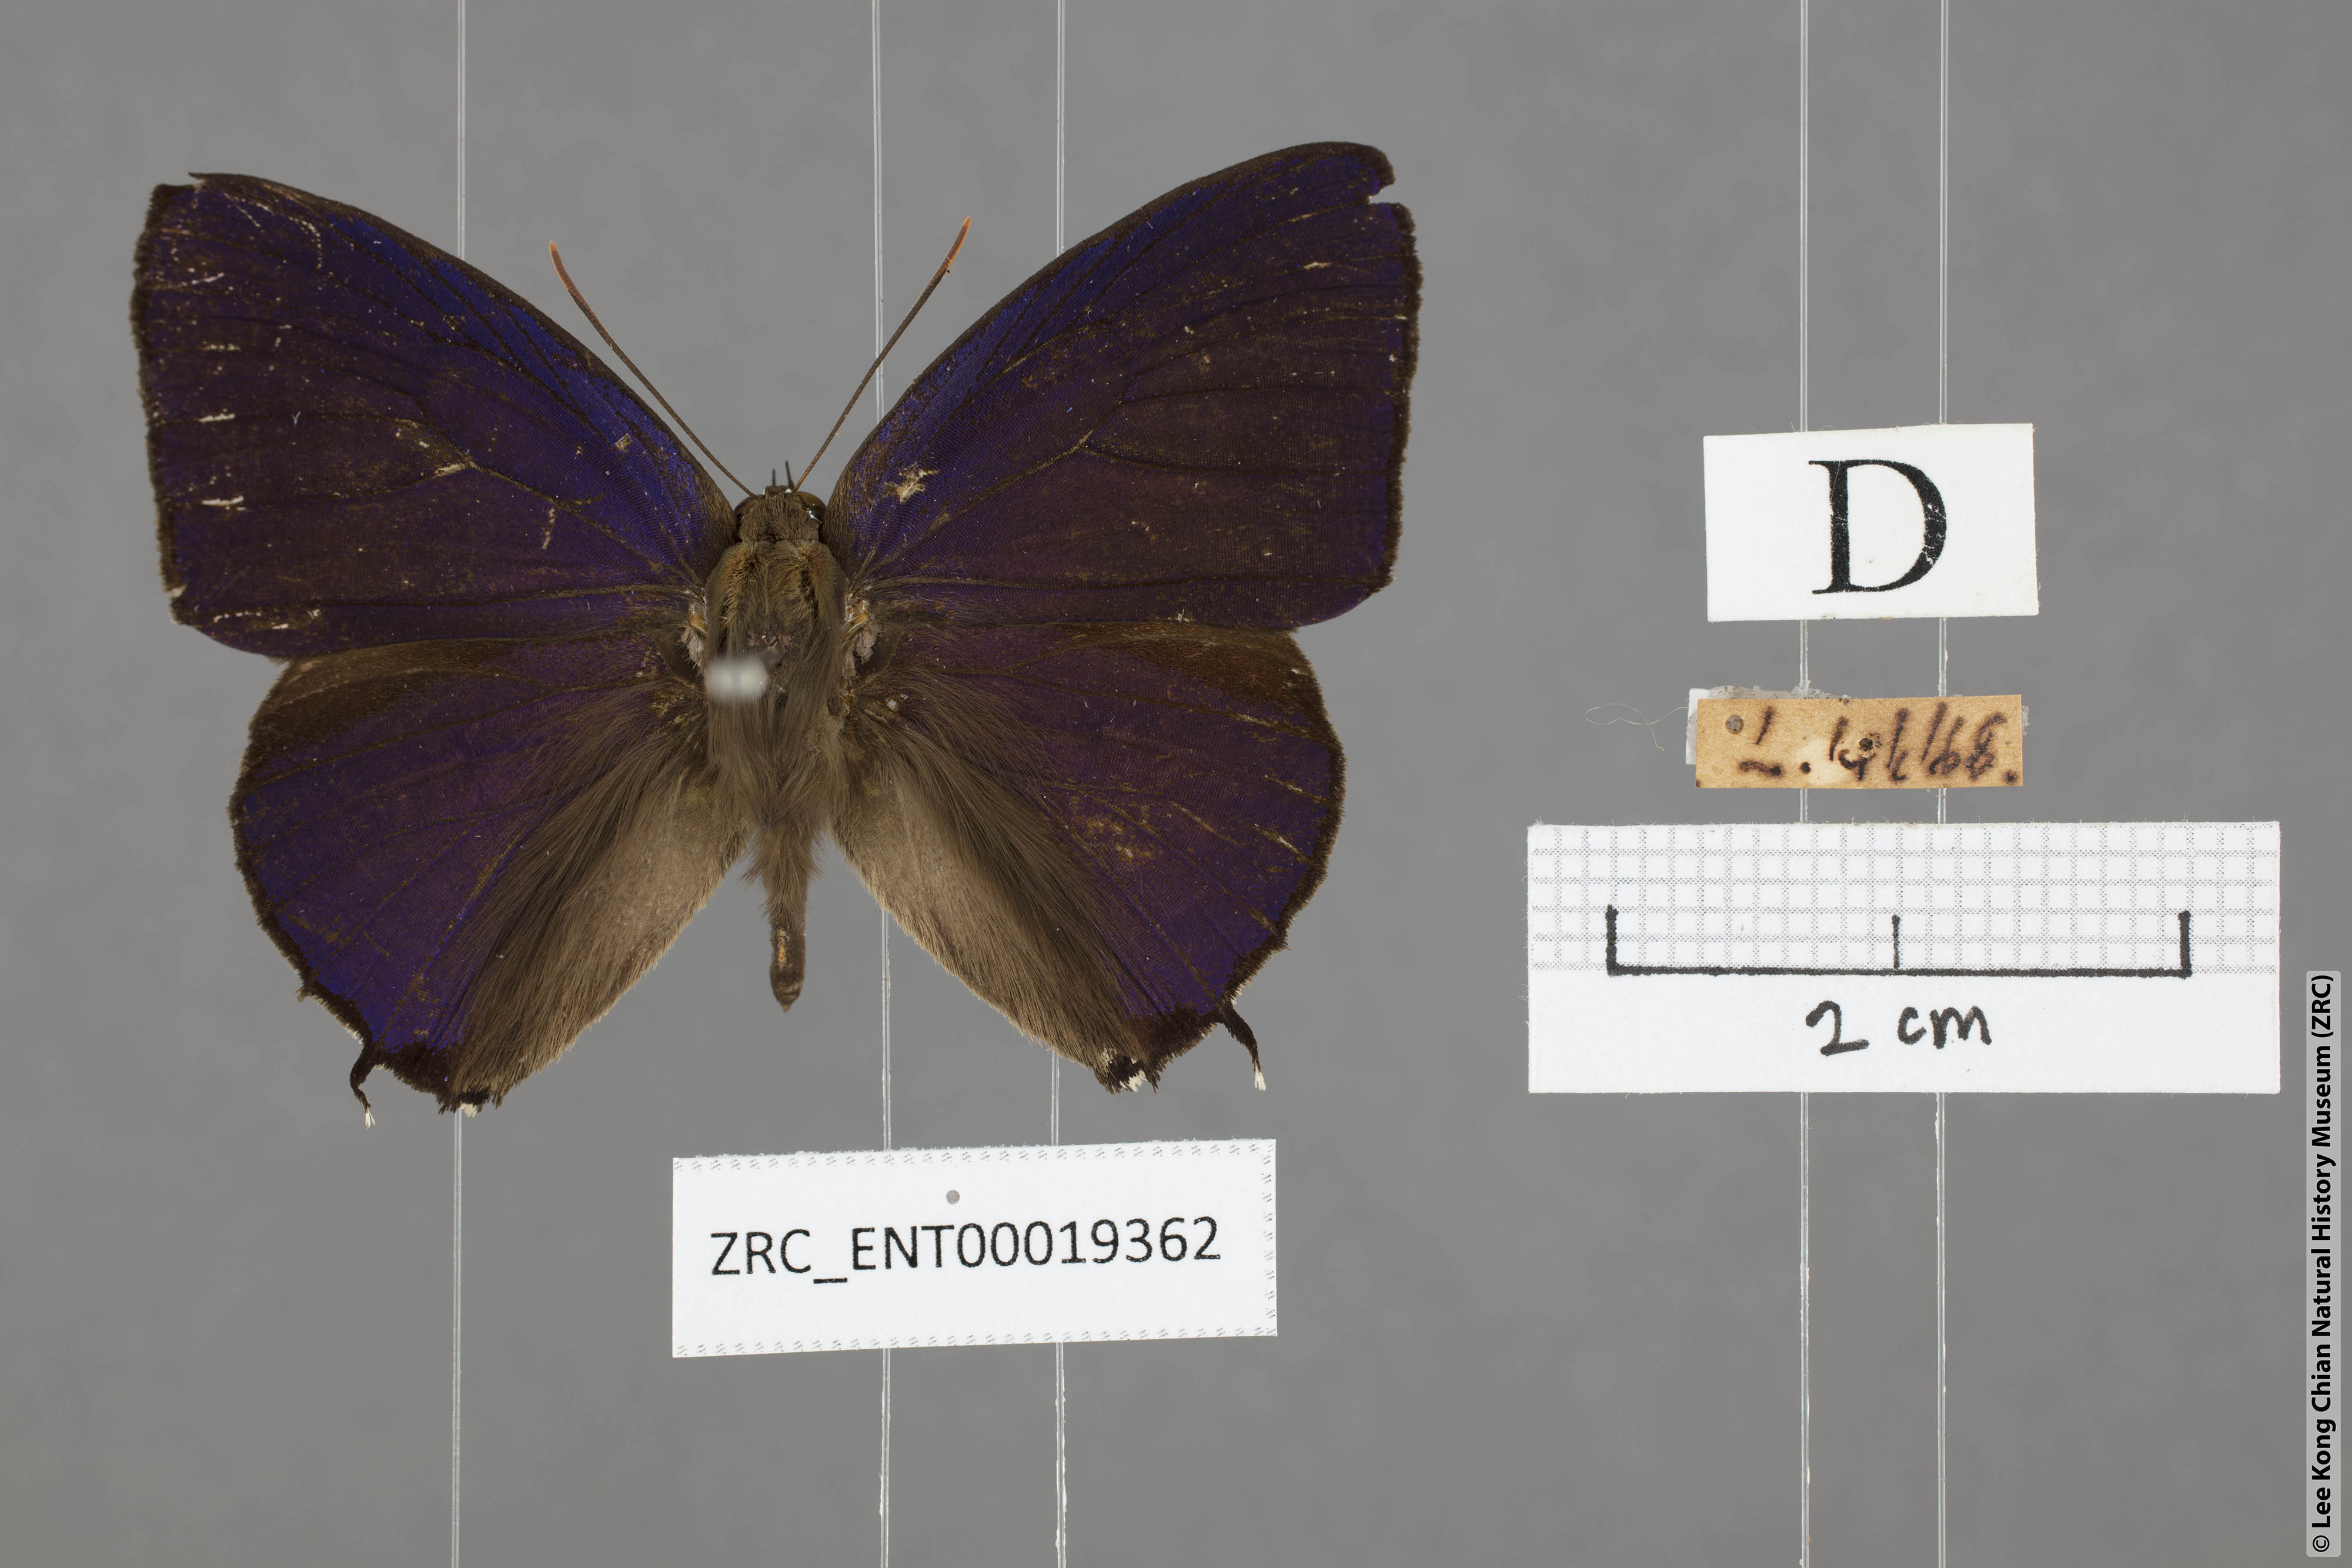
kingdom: Animalia
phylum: Arthropoda
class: Insecta
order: Lepidoptera
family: Lycaenidae
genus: Arhopala
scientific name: Arhopala corinda
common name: Ultramarine oakblue
